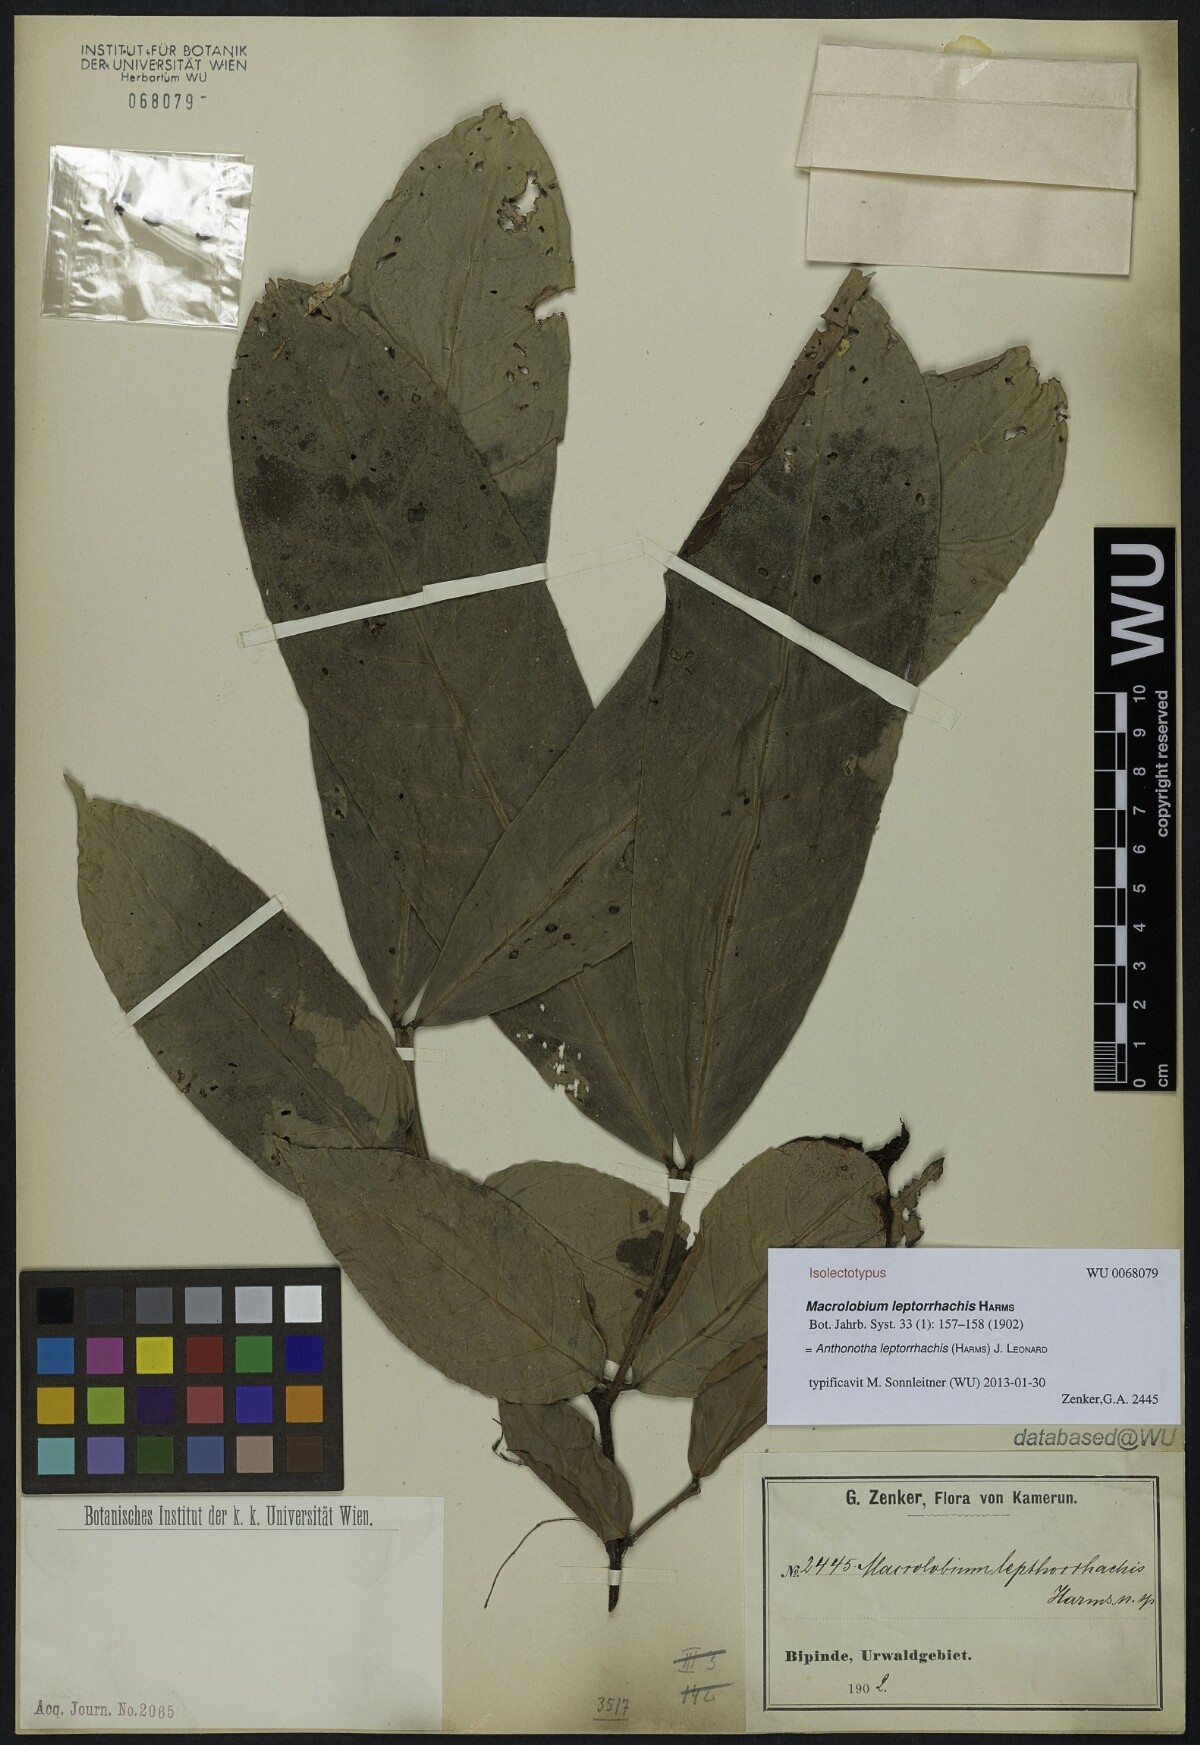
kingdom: Plantae
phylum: Tracheophyta
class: Magnoliopsida
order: Fabales
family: Fabaceae
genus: Englerodendron
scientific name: Englerodendron leptorrhachis
